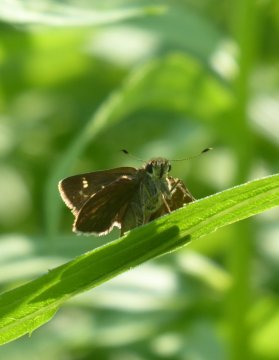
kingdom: Animalia
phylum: Arthropoda
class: Insecta
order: Lepidoptera
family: Hesperiidae
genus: Vernia
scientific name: Vernia verna
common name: Little Glassywing
